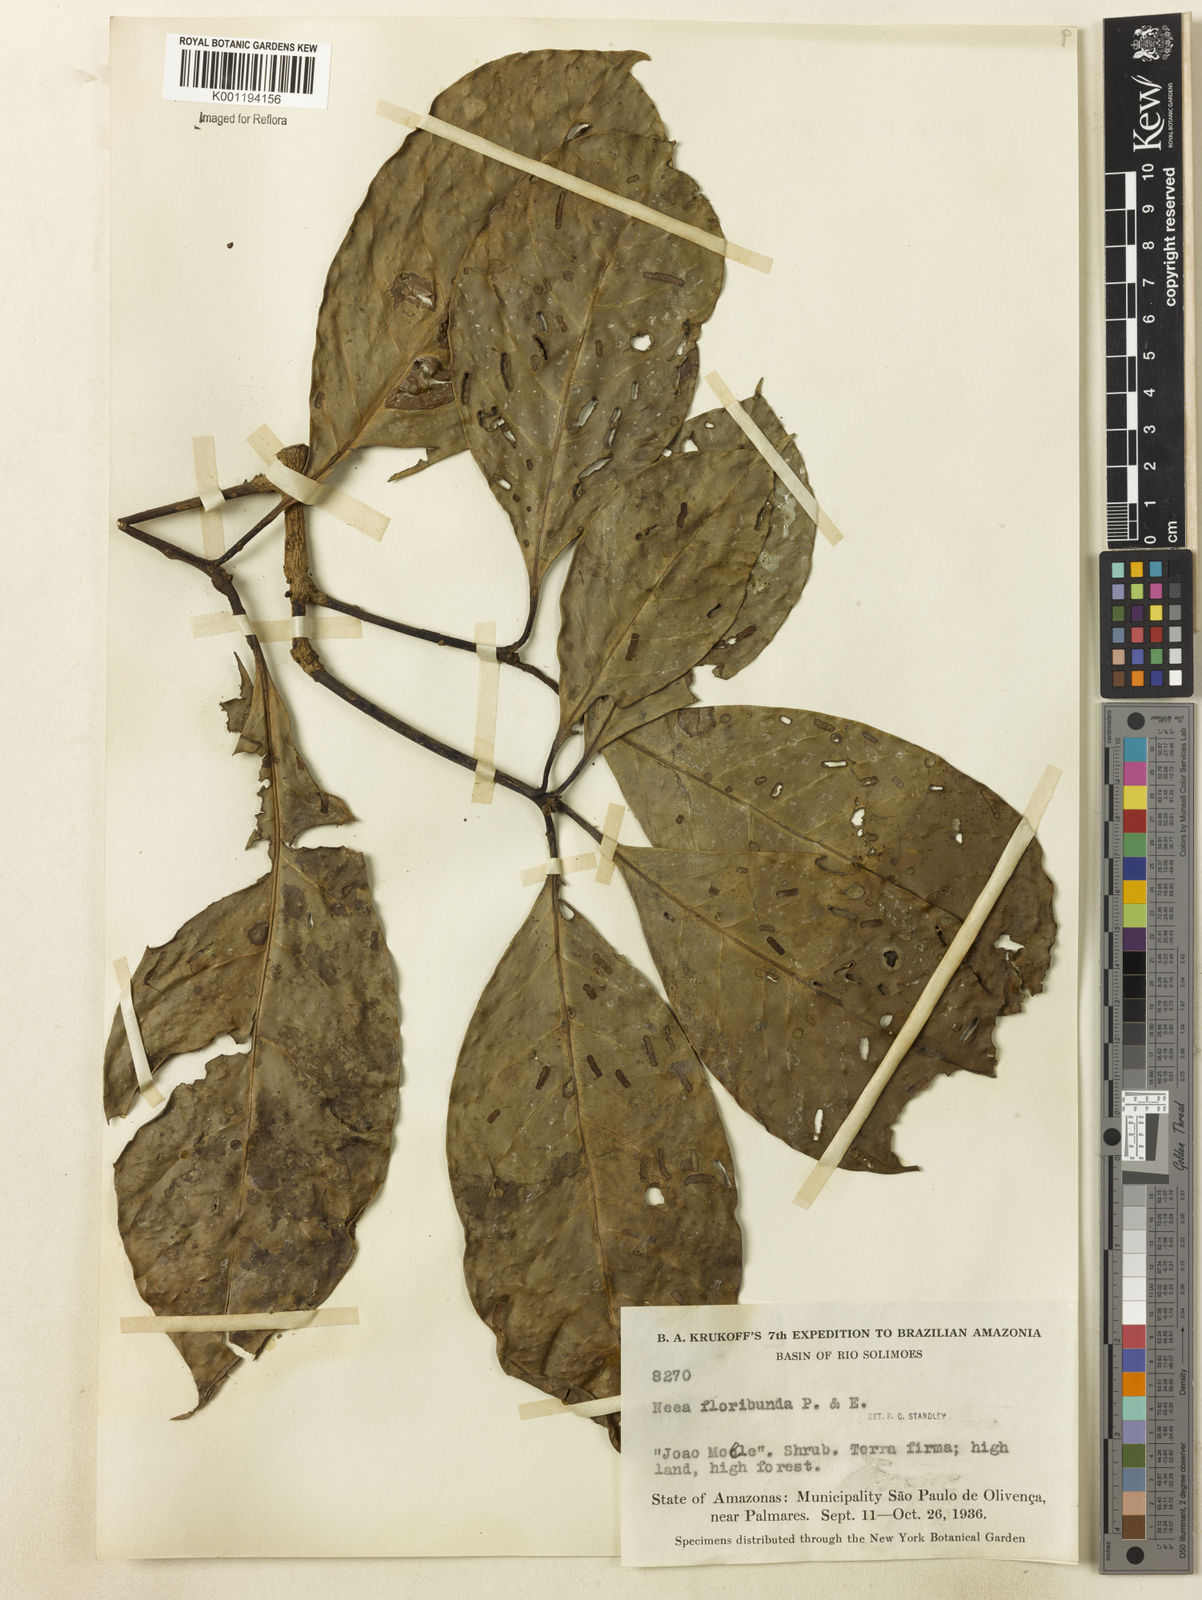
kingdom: Plantae
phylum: Tracheophyta
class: Magnoliopsida
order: Caryophyllales
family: Nyctaginaceae
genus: Neea
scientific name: Neea floribunda
